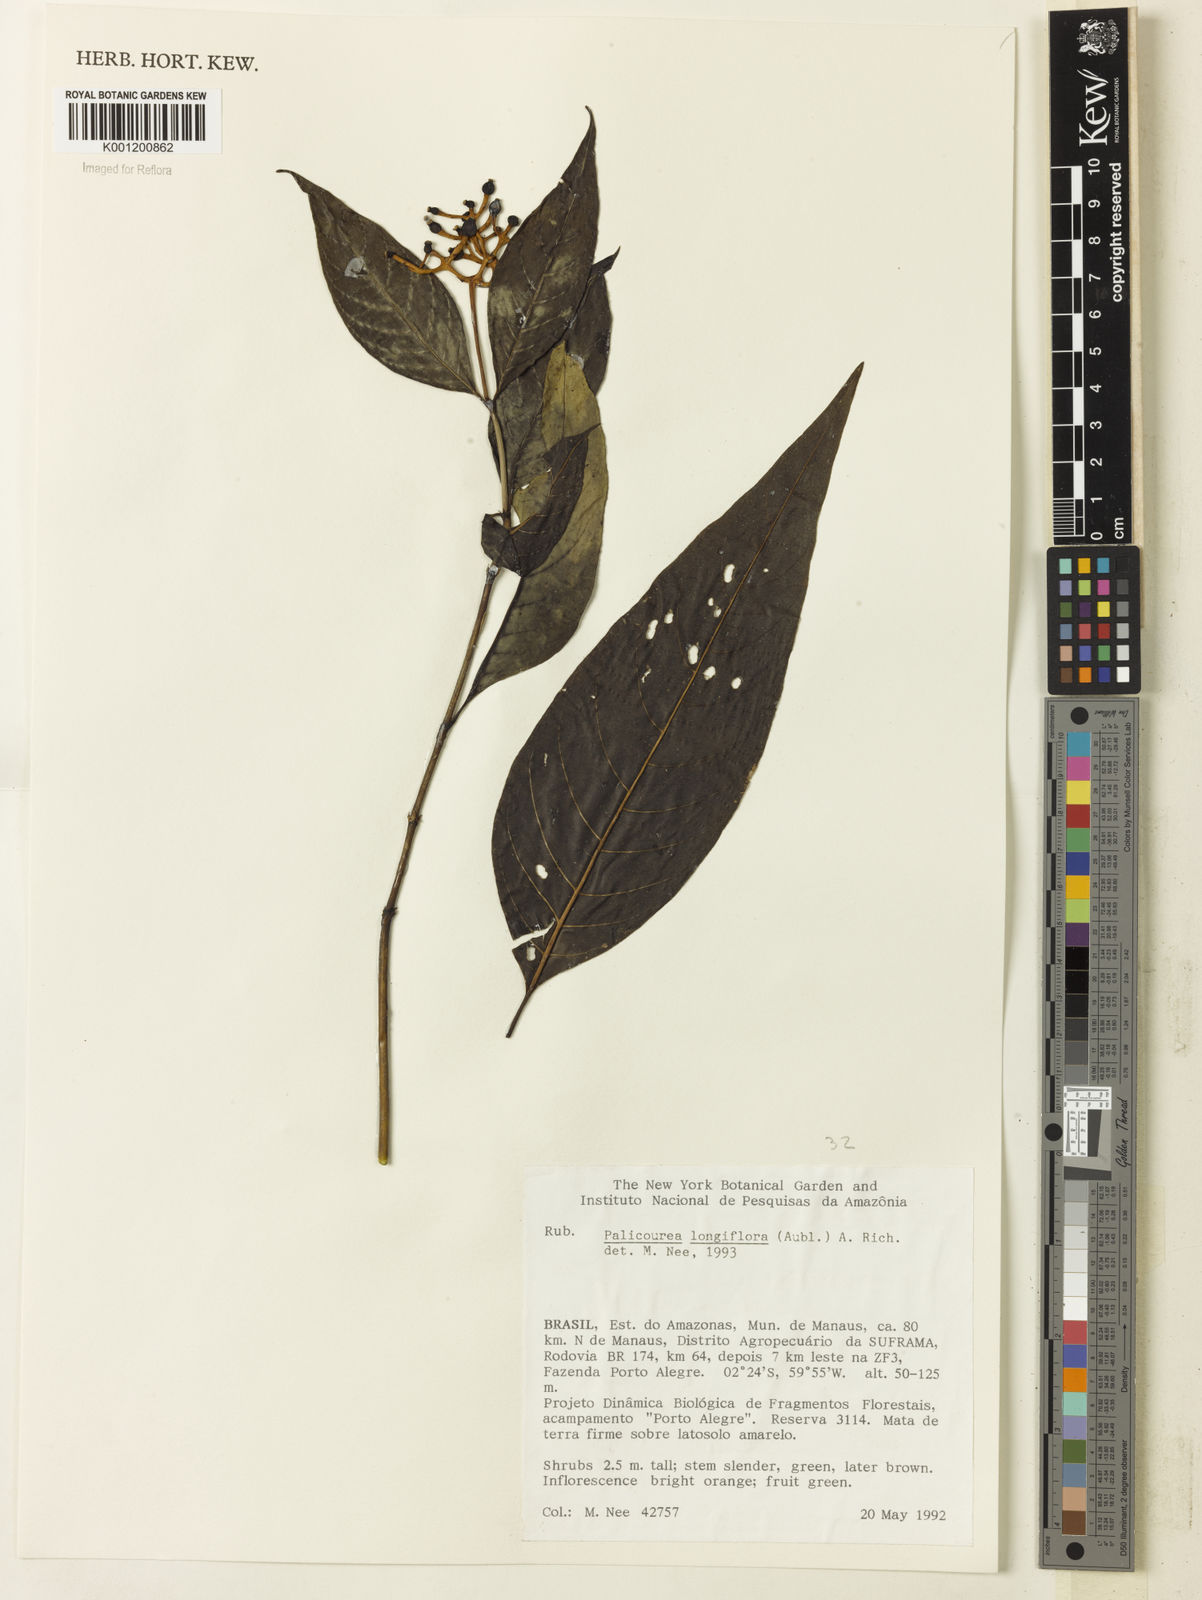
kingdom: Plantae
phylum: Tracheophyta
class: Magnoliopsida
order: Gentianales
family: Rubiaceae
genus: Palicourea
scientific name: Palicourea longiflora
